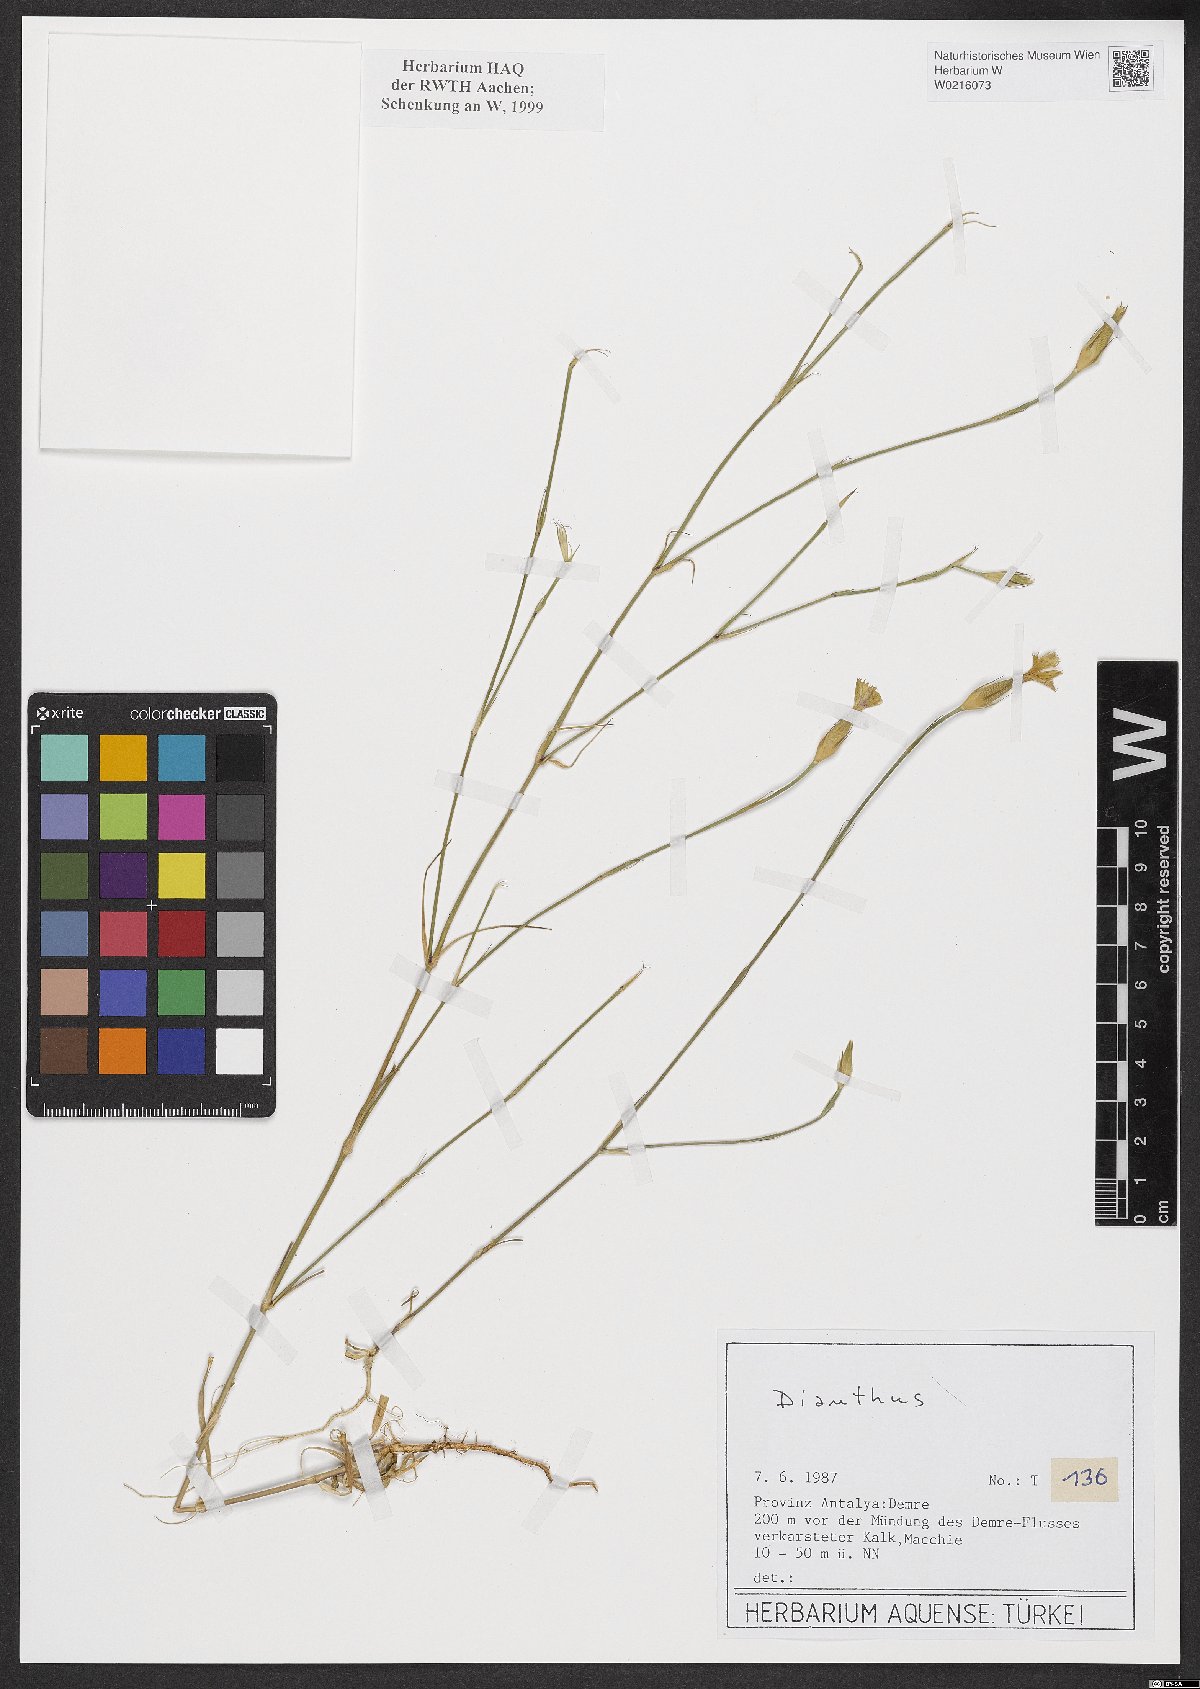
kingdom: Plantae
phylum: Tracheophyta
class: Magnoliopsida
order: Caryophyllales
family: Caryophyllaceae
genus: Dianthus
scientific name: Dianthus
